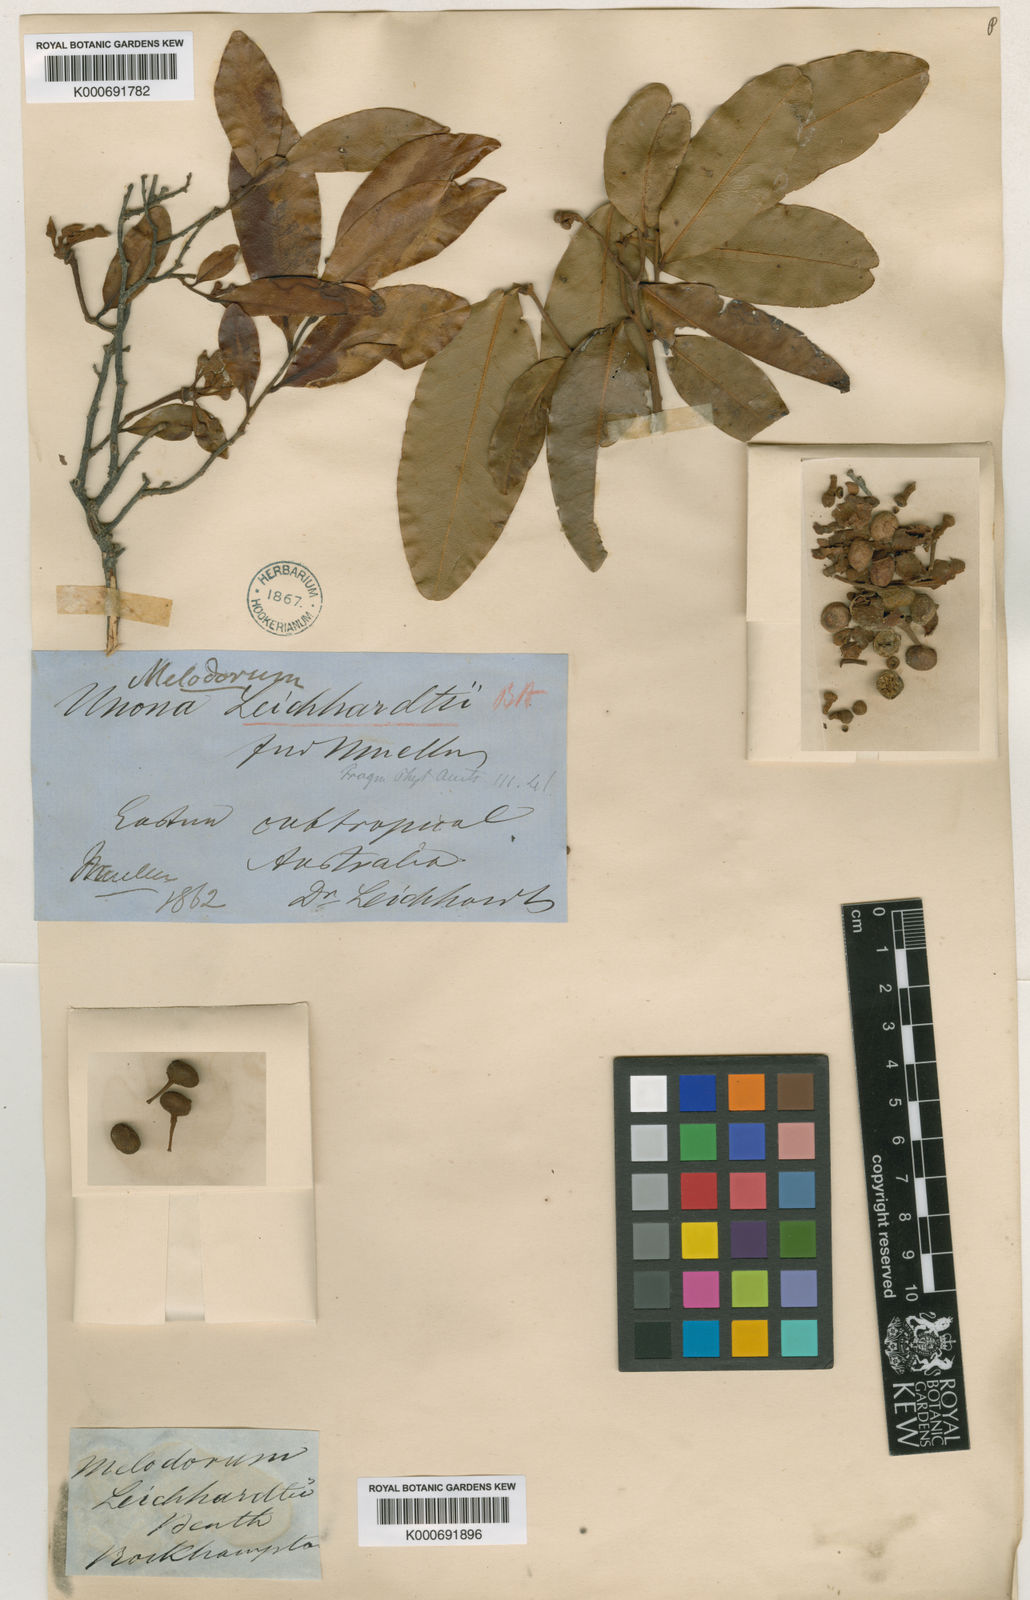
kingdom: Plantae
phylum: Tracheophyta
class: Magnoliopsida
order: Magnoliales
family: Annonaceae
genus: Melodorum
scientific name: Melodorum leichhardtii
